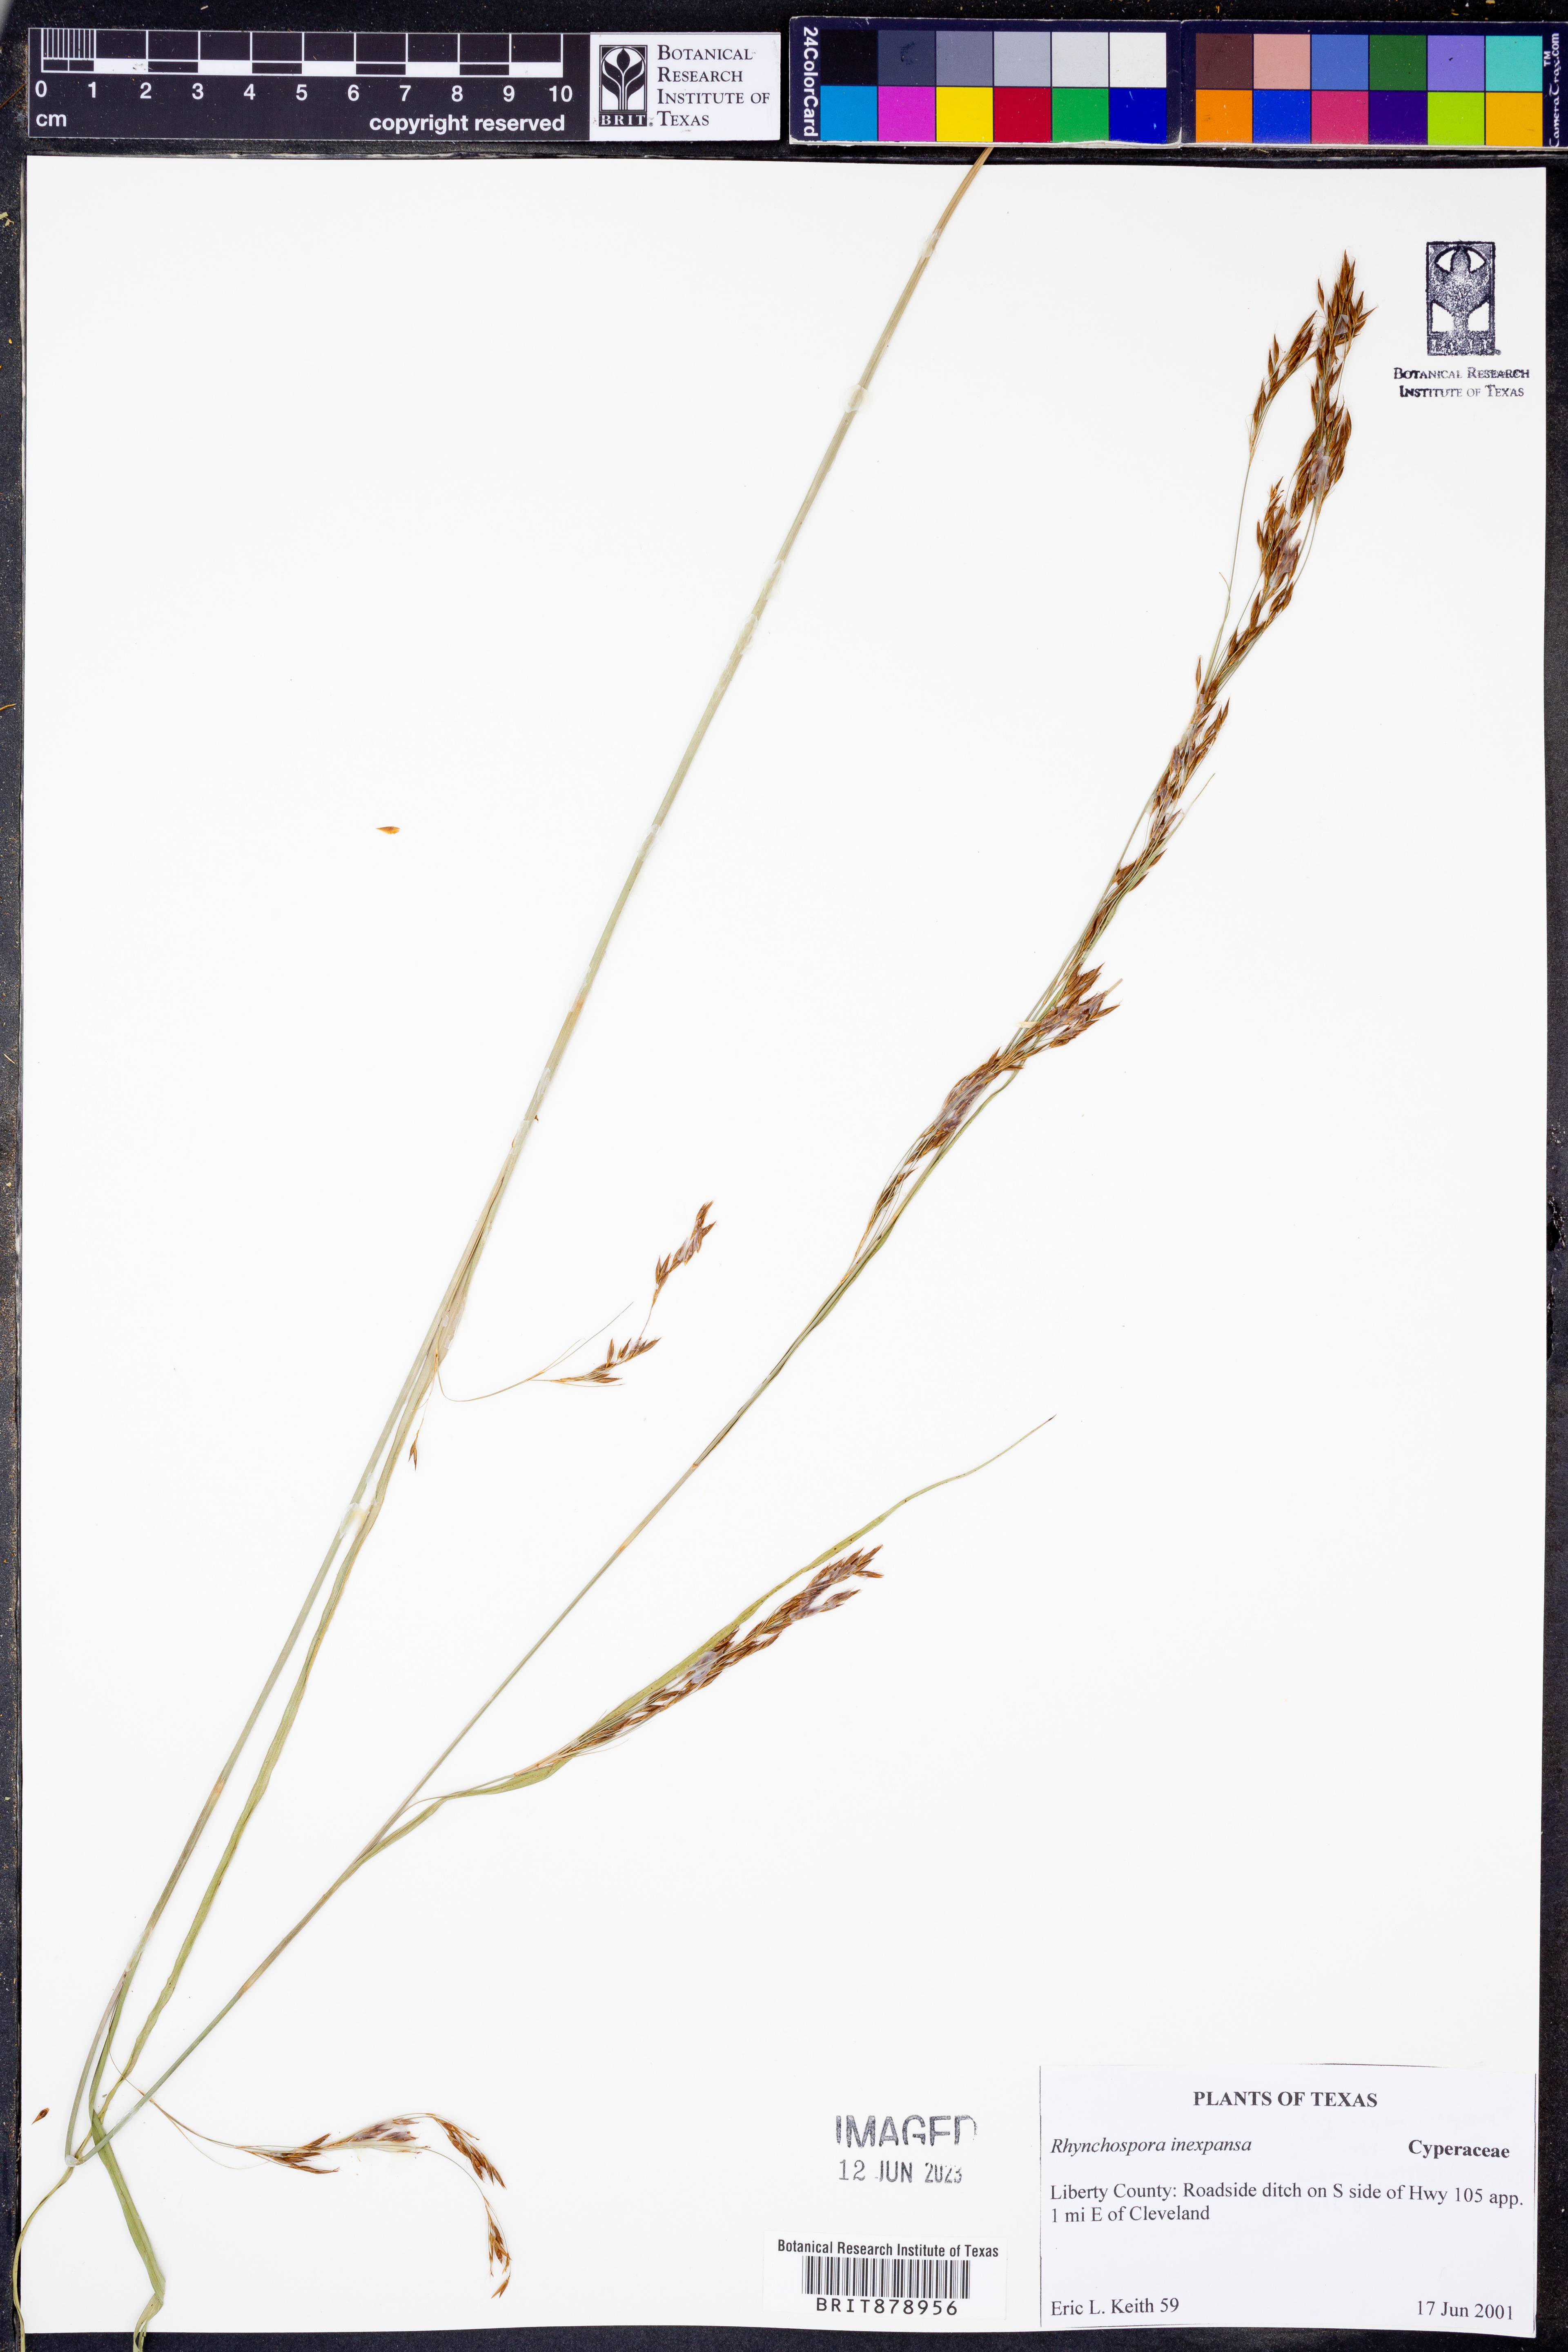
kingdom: Plantae
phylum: Tracheophyta
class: Liliopsida
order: Poales
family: Cyperaceae
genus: Rhynchospora
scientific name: Rhynchospora inexpansa
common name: Nodding beaksedge
